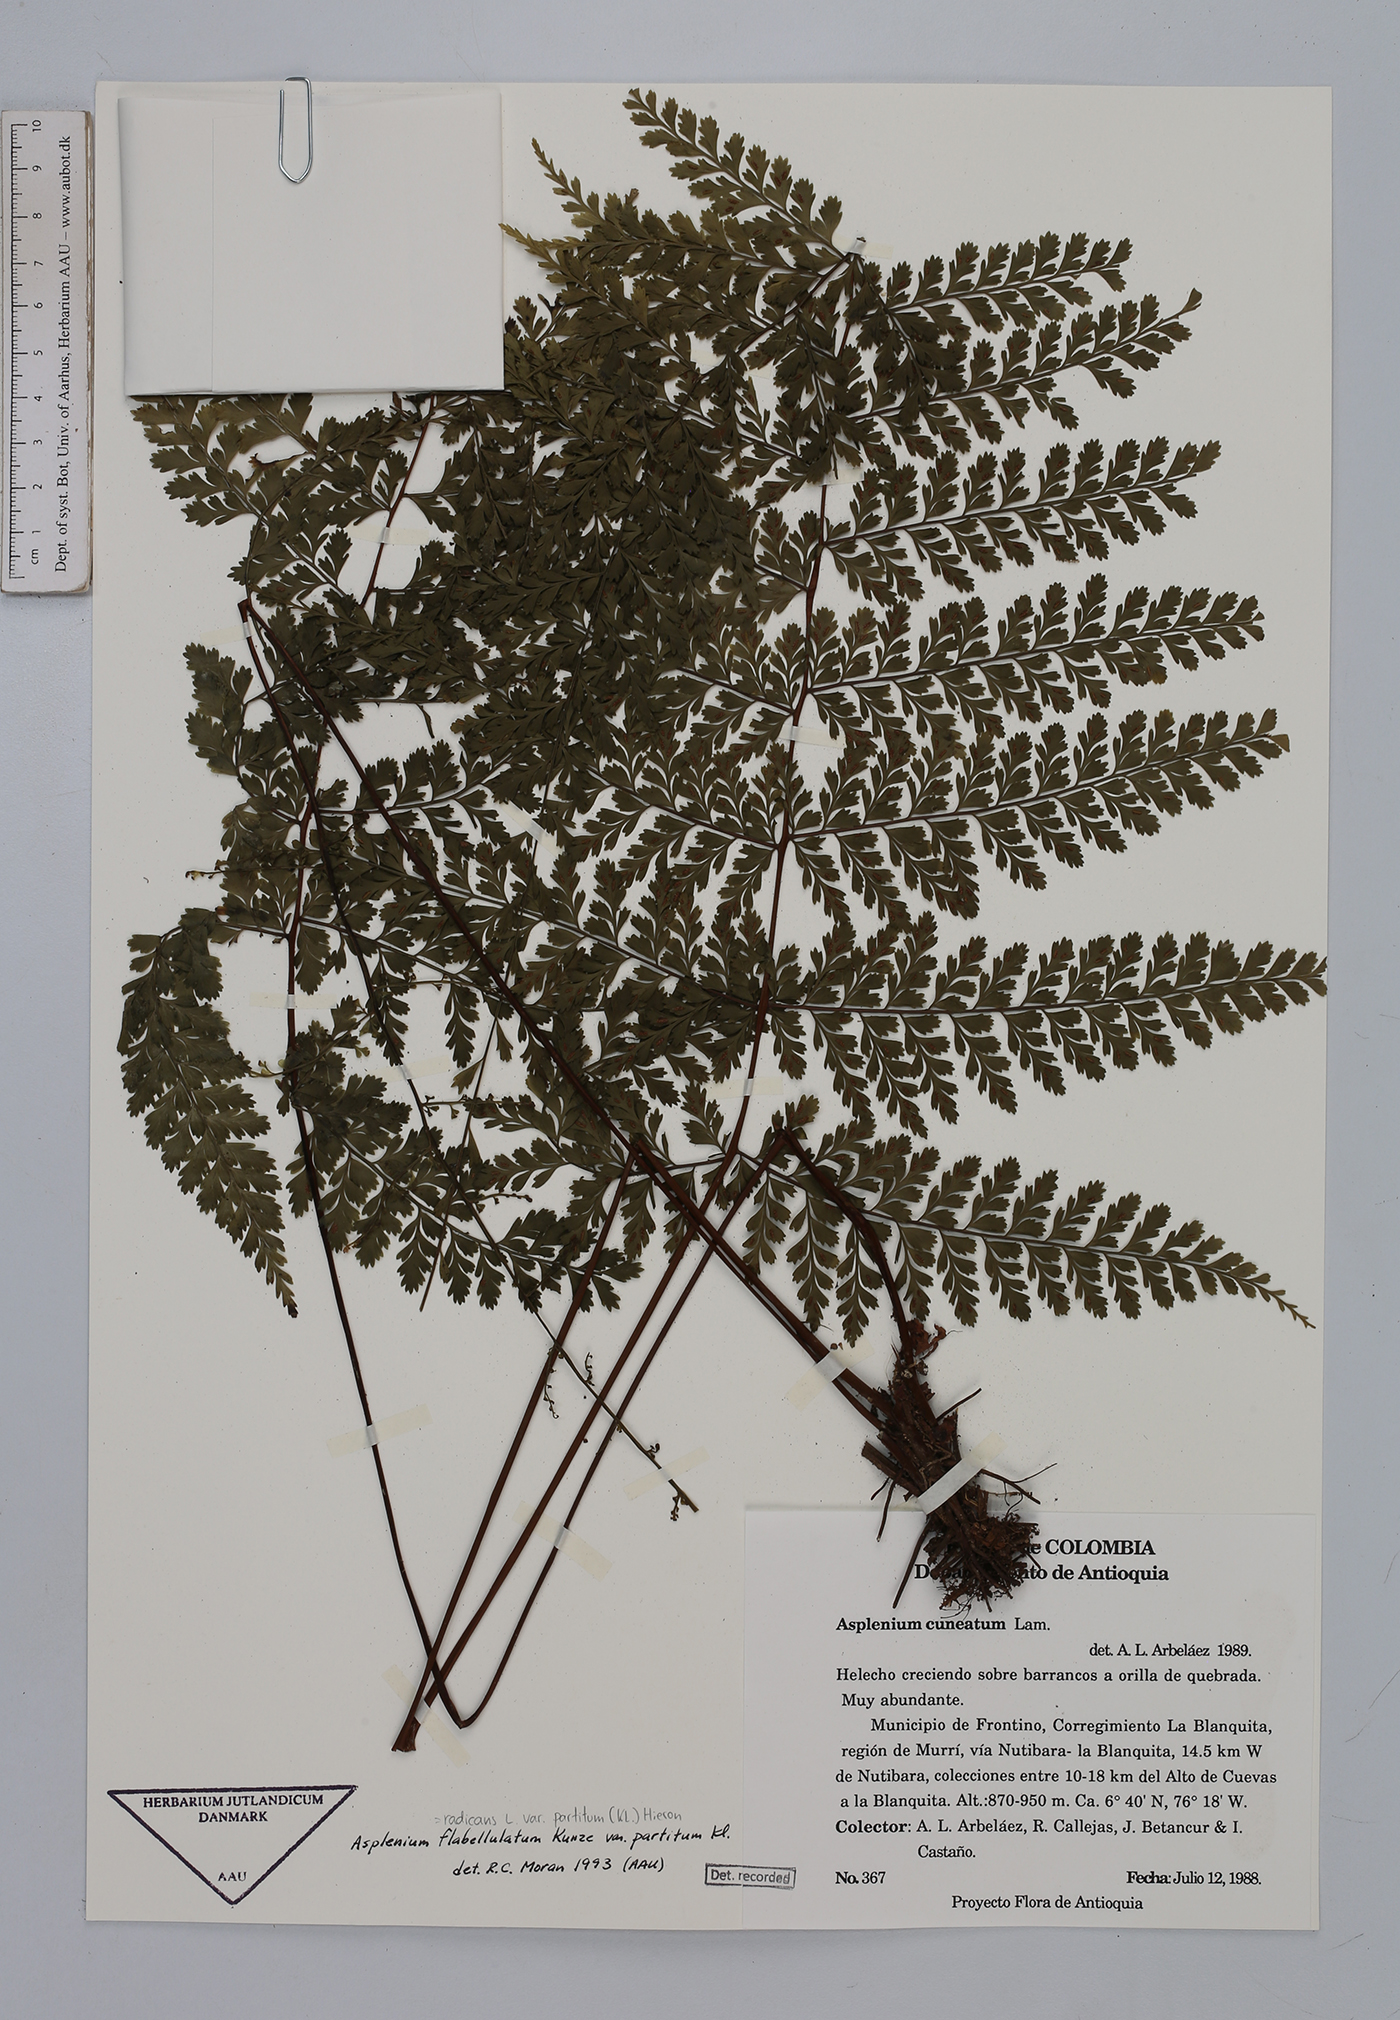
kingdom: Plantae
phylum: Tracheophyta
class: Polypodiopsida
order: Polypodiales
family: Aspleniaceae
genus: Asplenium
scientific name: Asplenium flabellulatum
